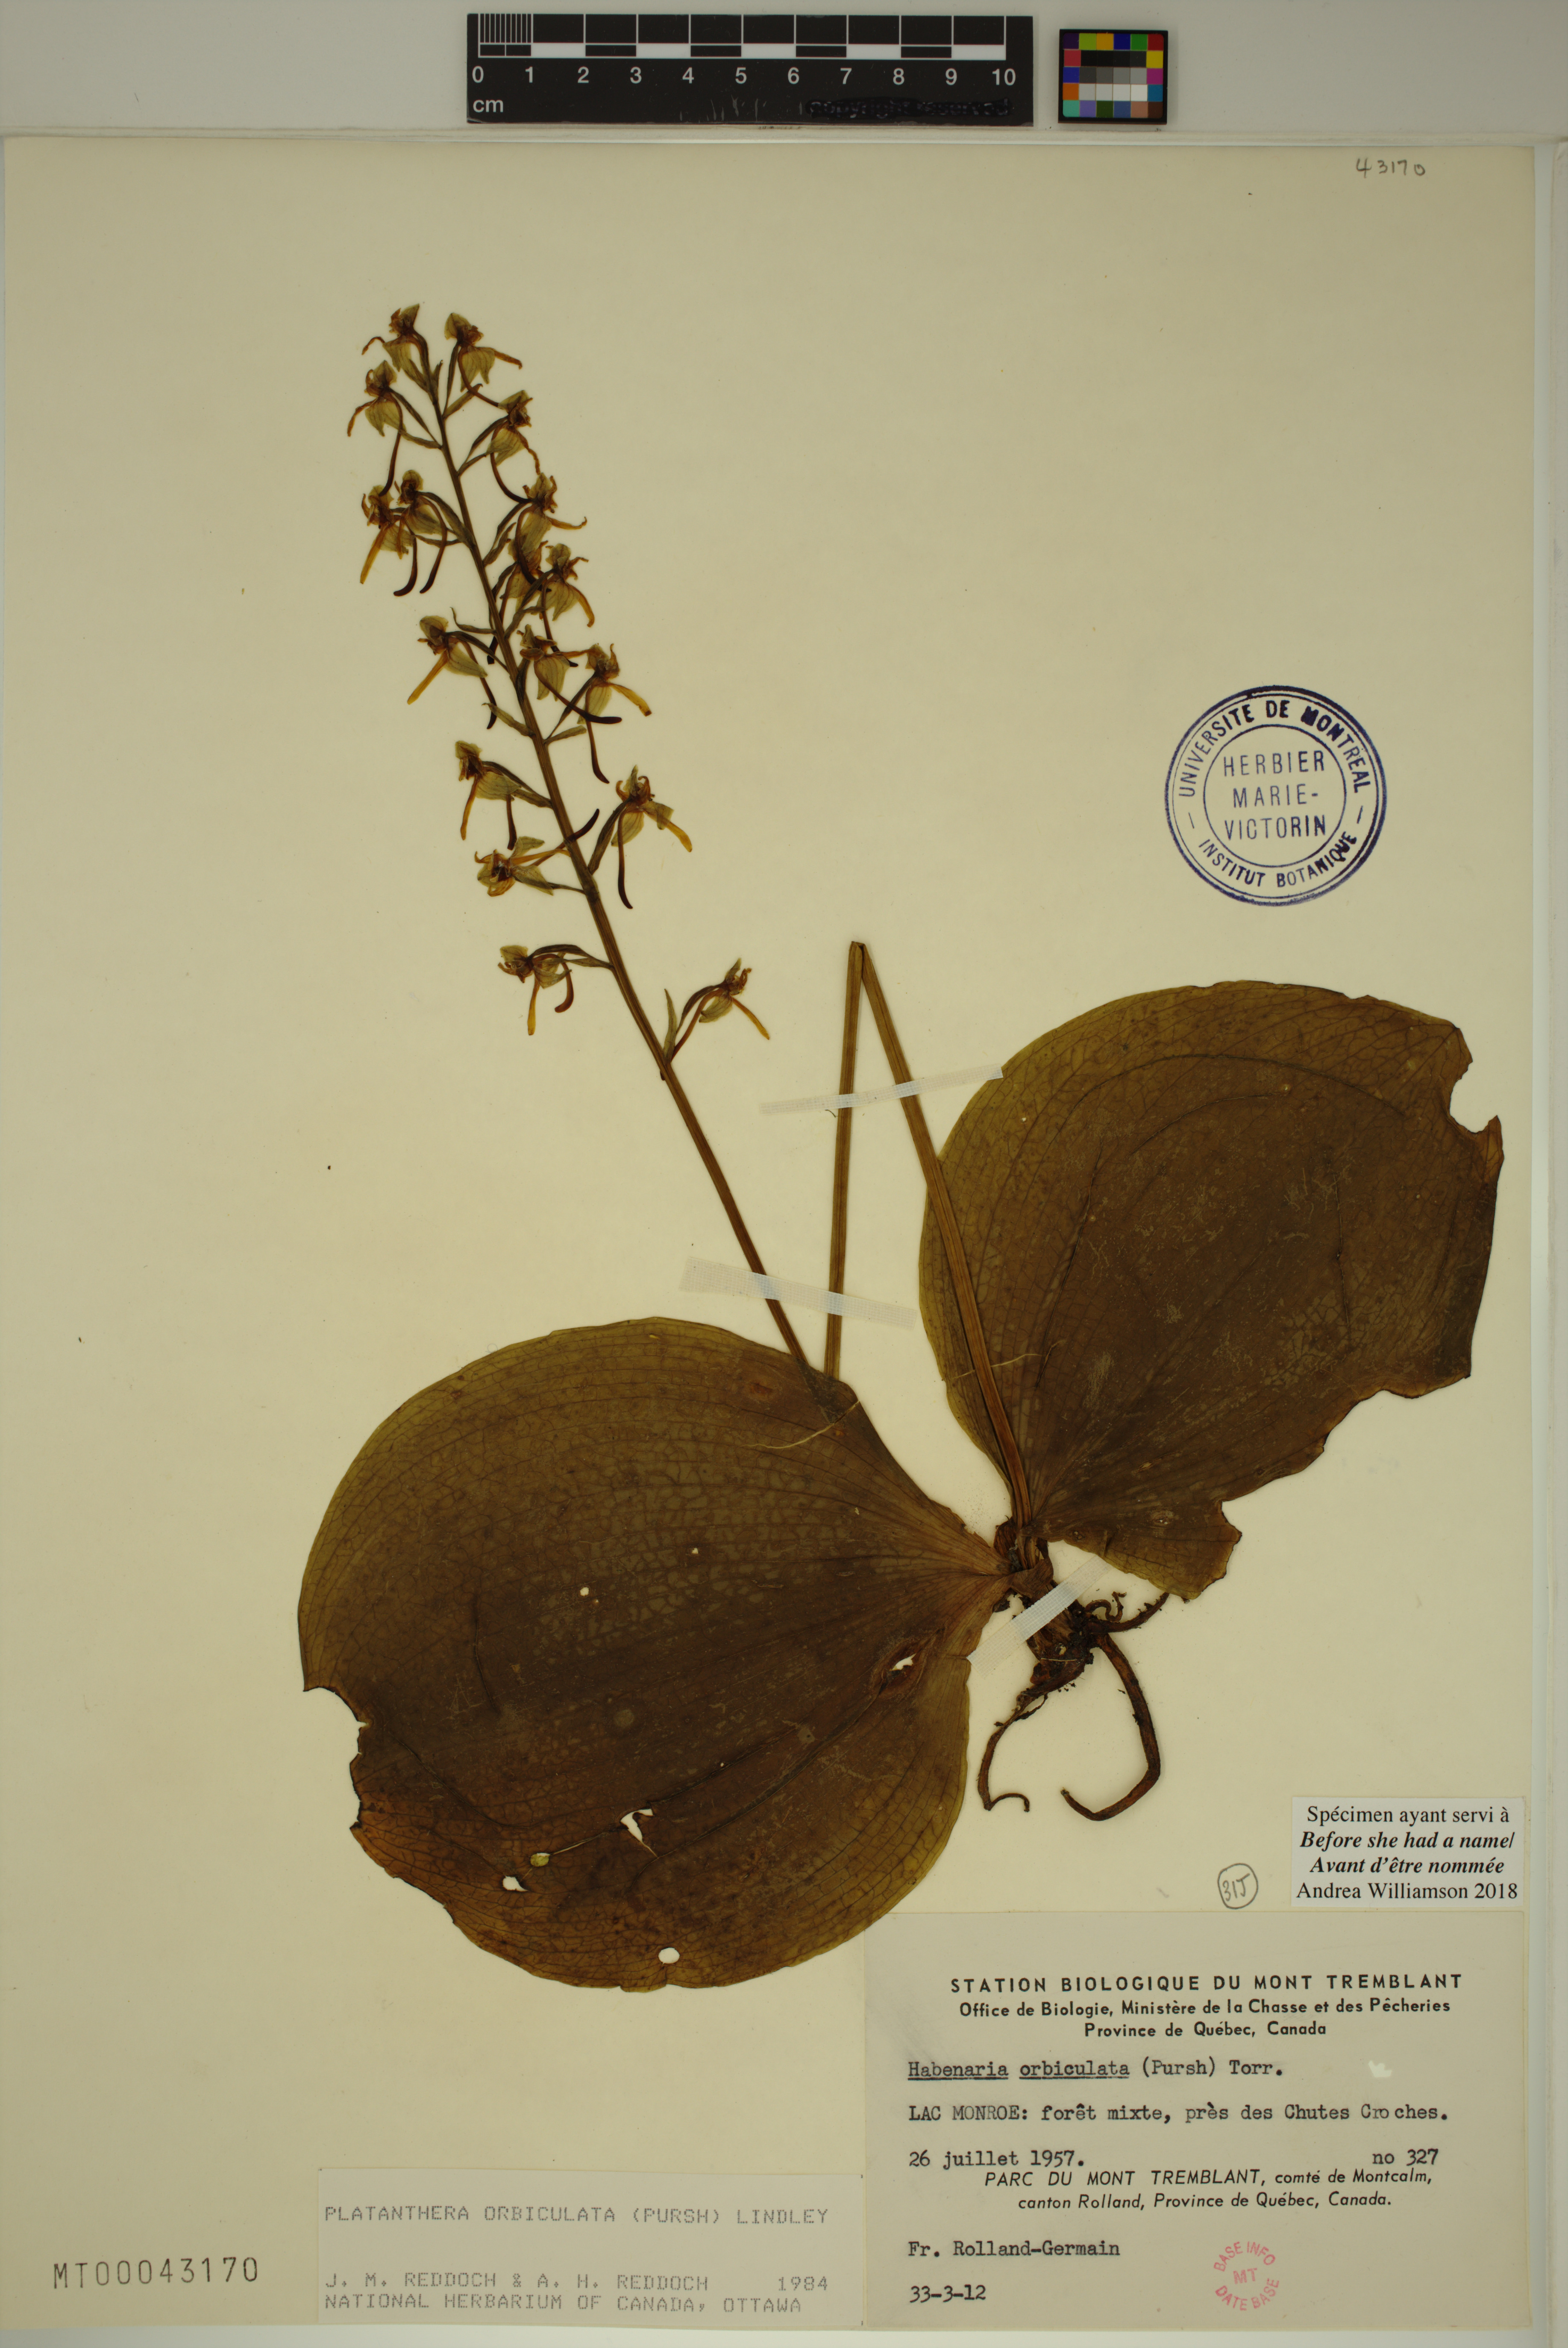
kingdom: Plantae
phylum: Tracheophyta
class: Liliopsida
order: Asparagales
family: Orchidaceae
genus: Platanthera
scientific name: Platanthera orbiculata
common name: Large round-leaved orchid
